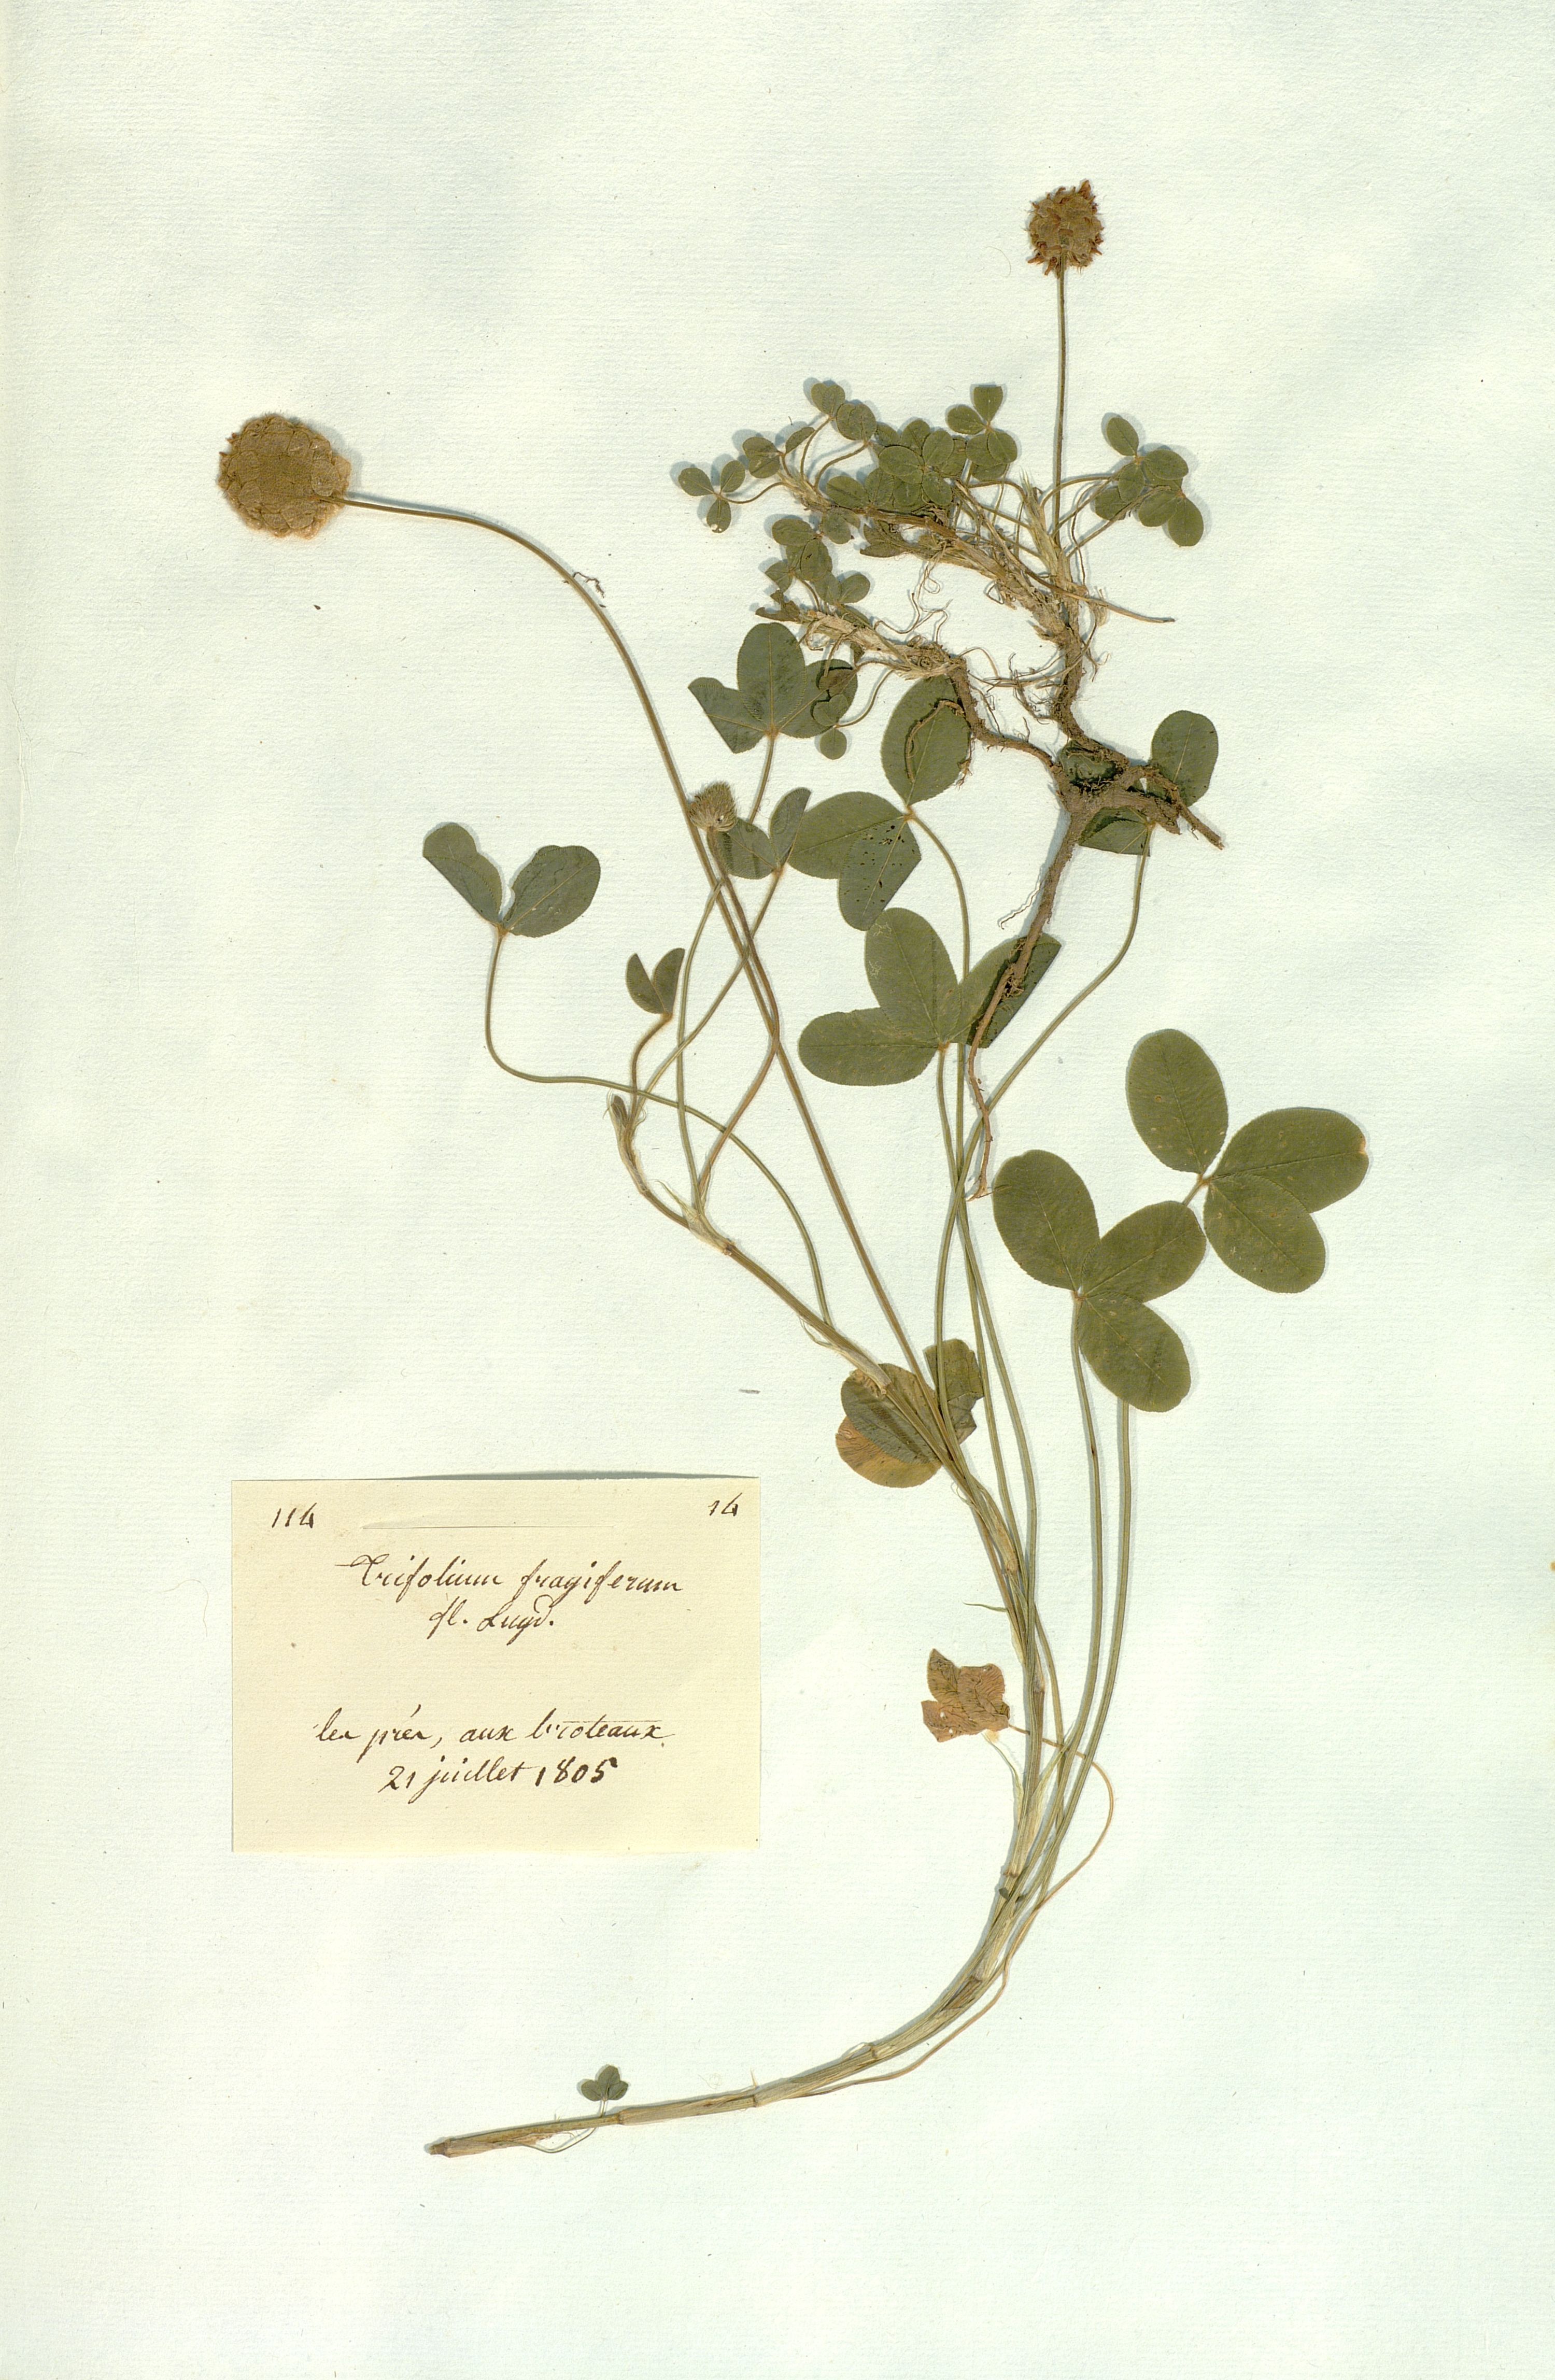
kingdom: Plantae
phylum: Tracheophyta
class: Magnoliopsida
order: Fabales
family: Fabaceae
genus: Trifolium
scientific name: Trifolium fragiferum
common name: Strawberry clover
